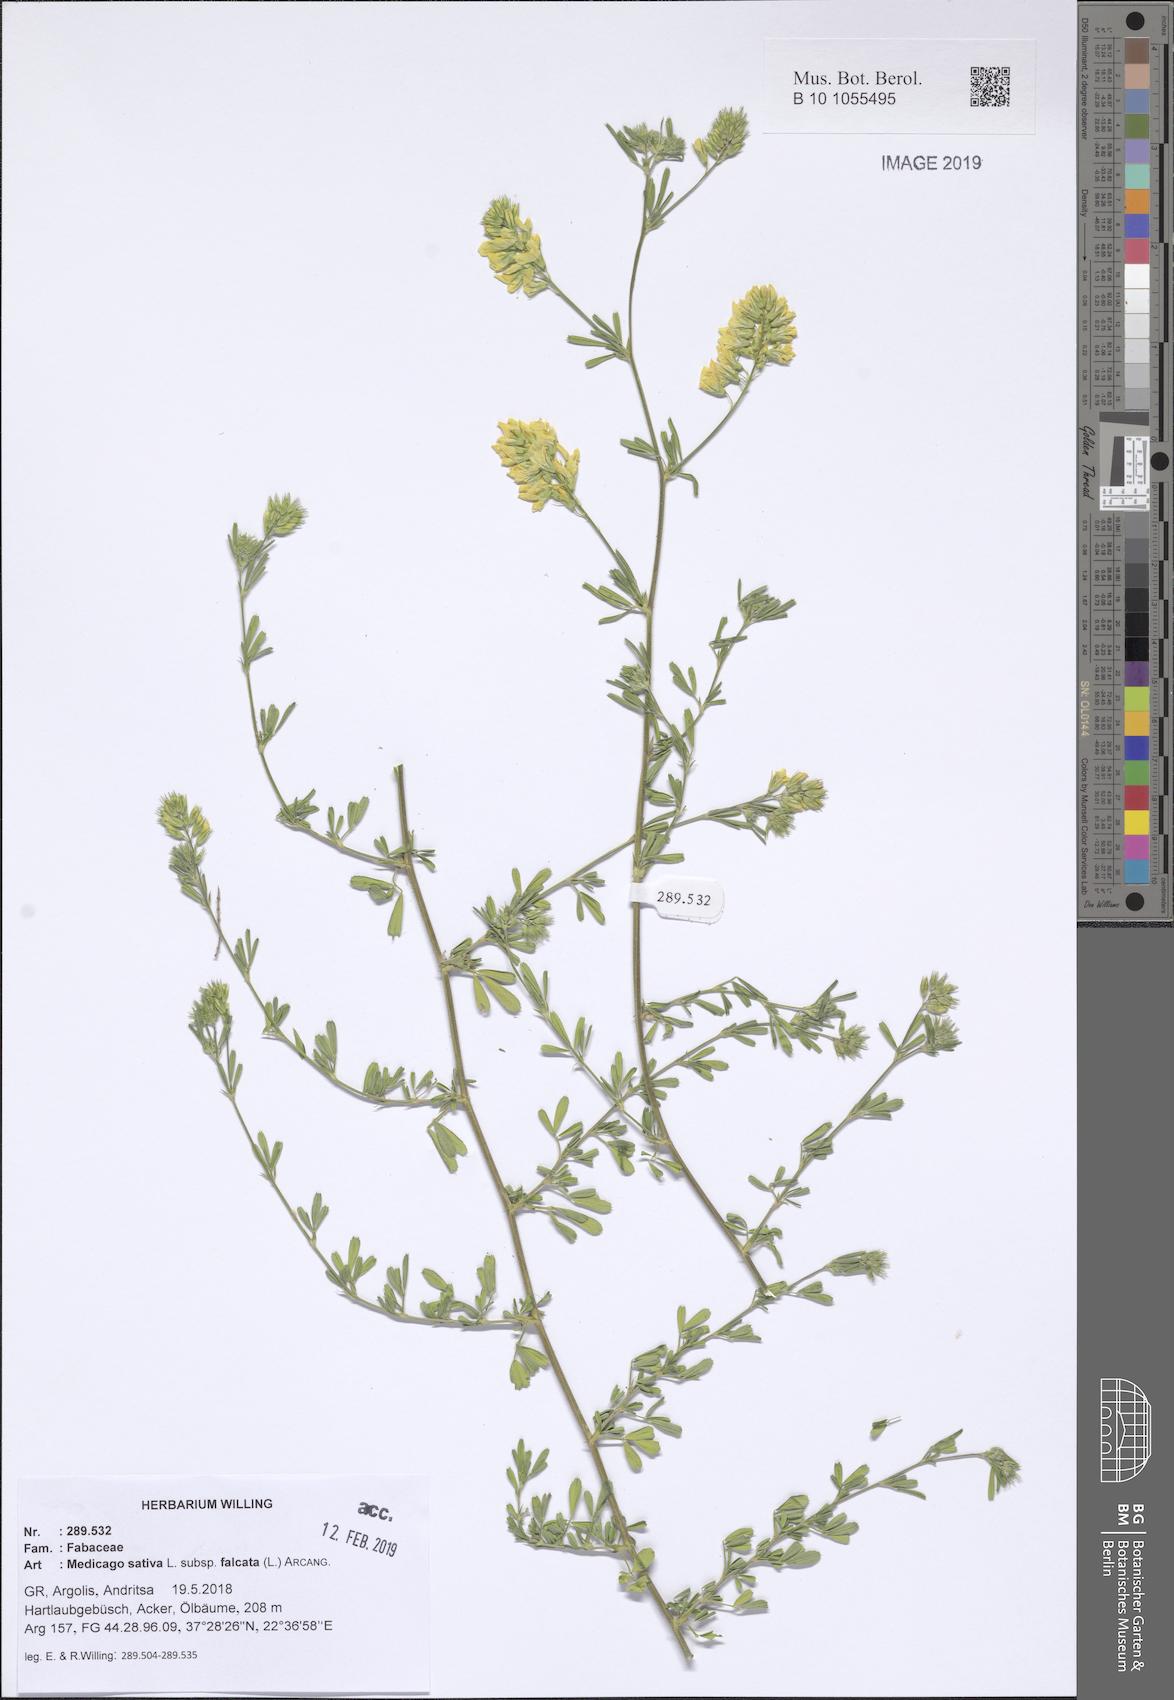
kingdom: Plantae
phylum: Tracheophyta
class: Magnoliopsida
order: Fabales
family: Fabaceae
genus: Medicago
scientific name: Medicago falcata
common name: Sickle medick
